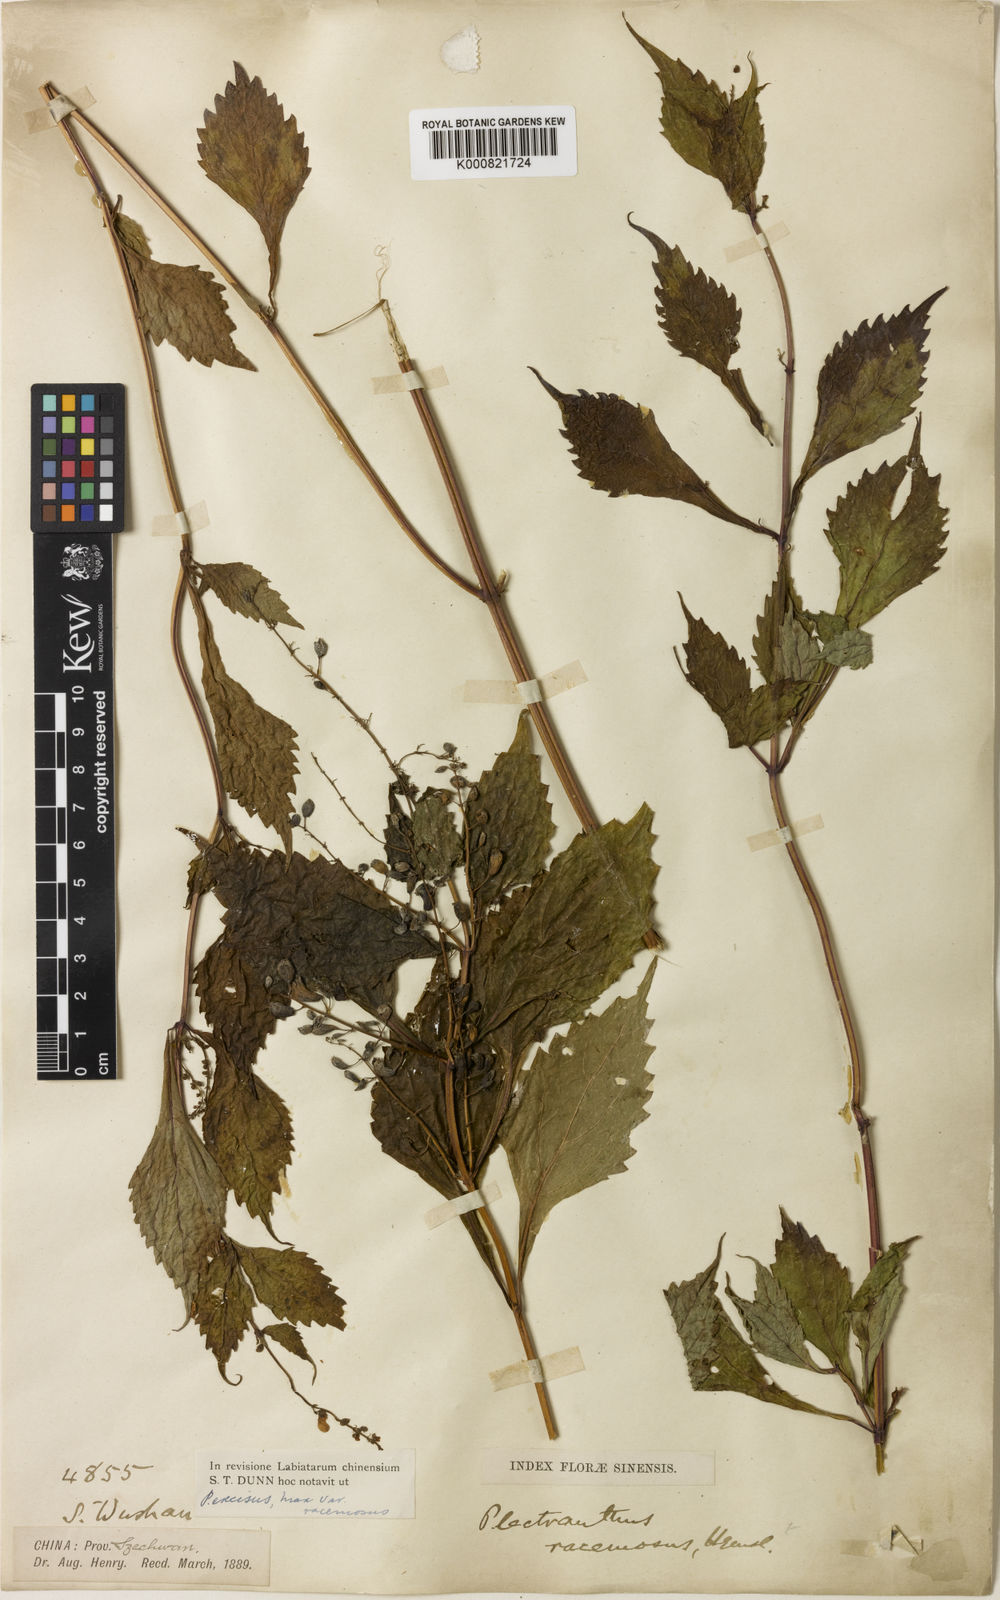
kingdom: Plantae
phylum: Tracheophyta
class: Magnoliopsida
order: Lamiales
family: Lamiaceae
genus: Isodon
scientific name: Isodon racemosus
